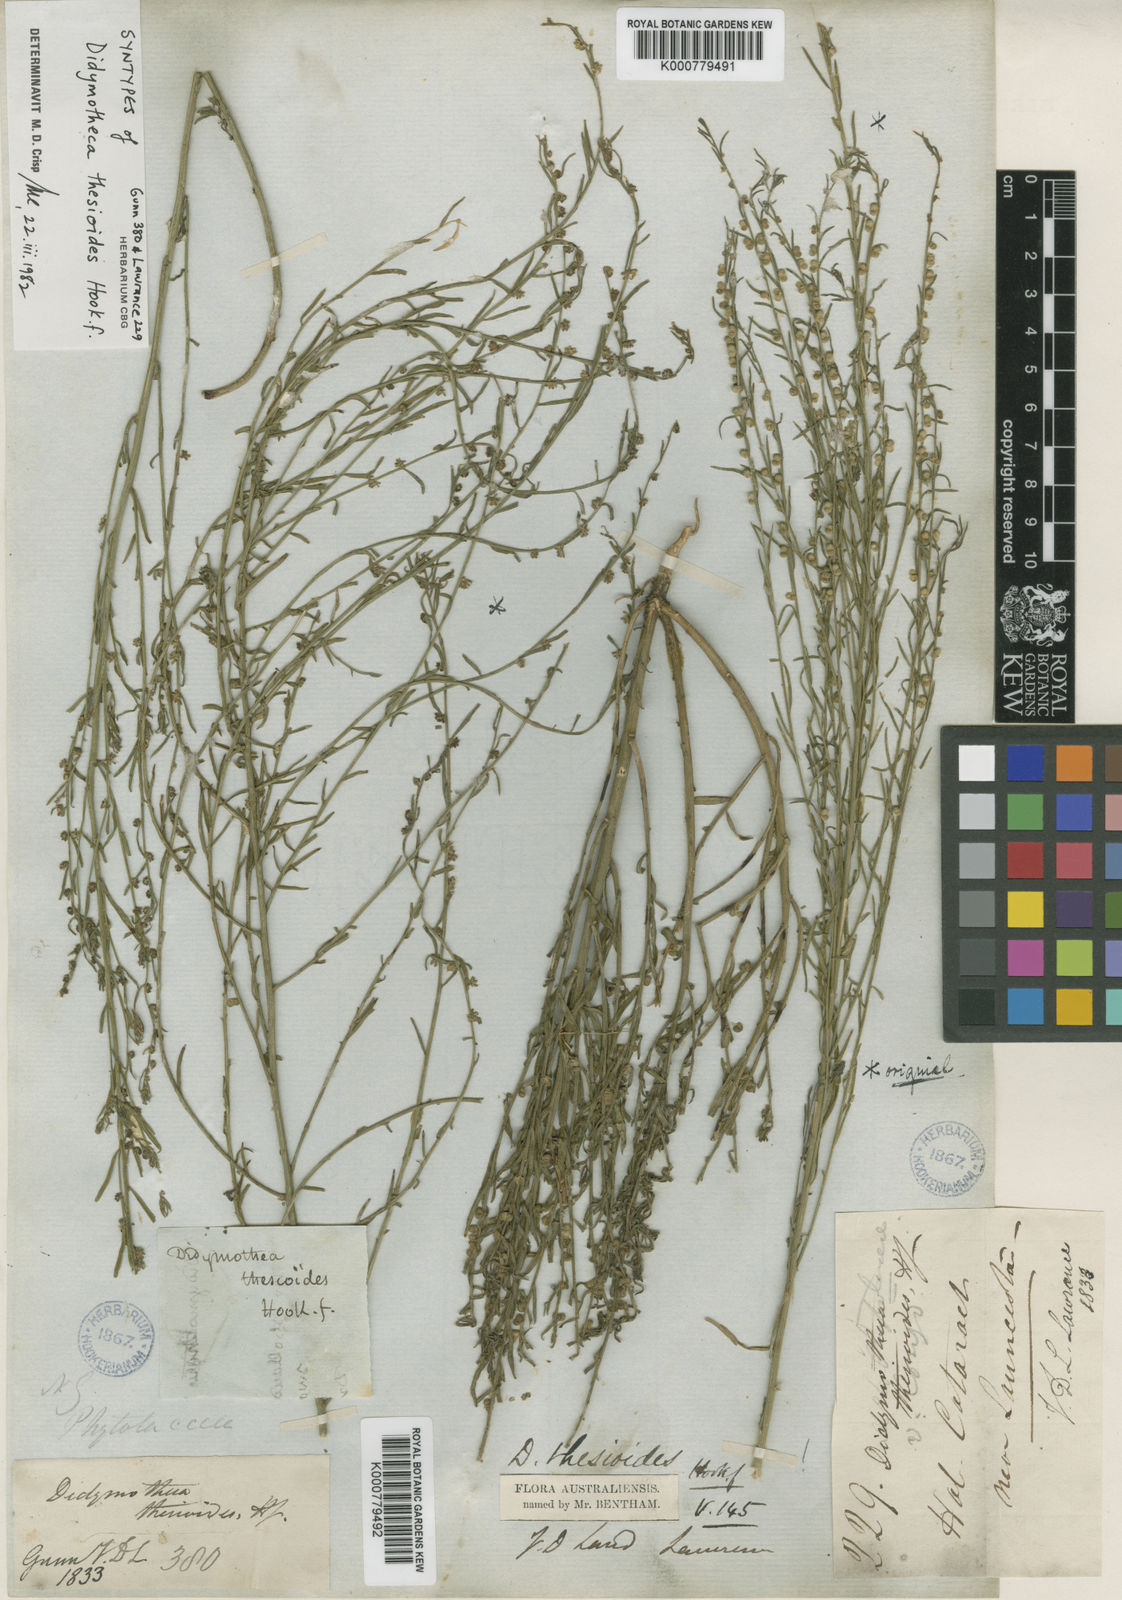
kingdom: Plantae
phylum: Tracheophyta
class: Magnoliopsida
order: Brassicales
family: Gyrostemonaceae
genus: Gyrostemon
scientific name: Gyrostemon thesioides
